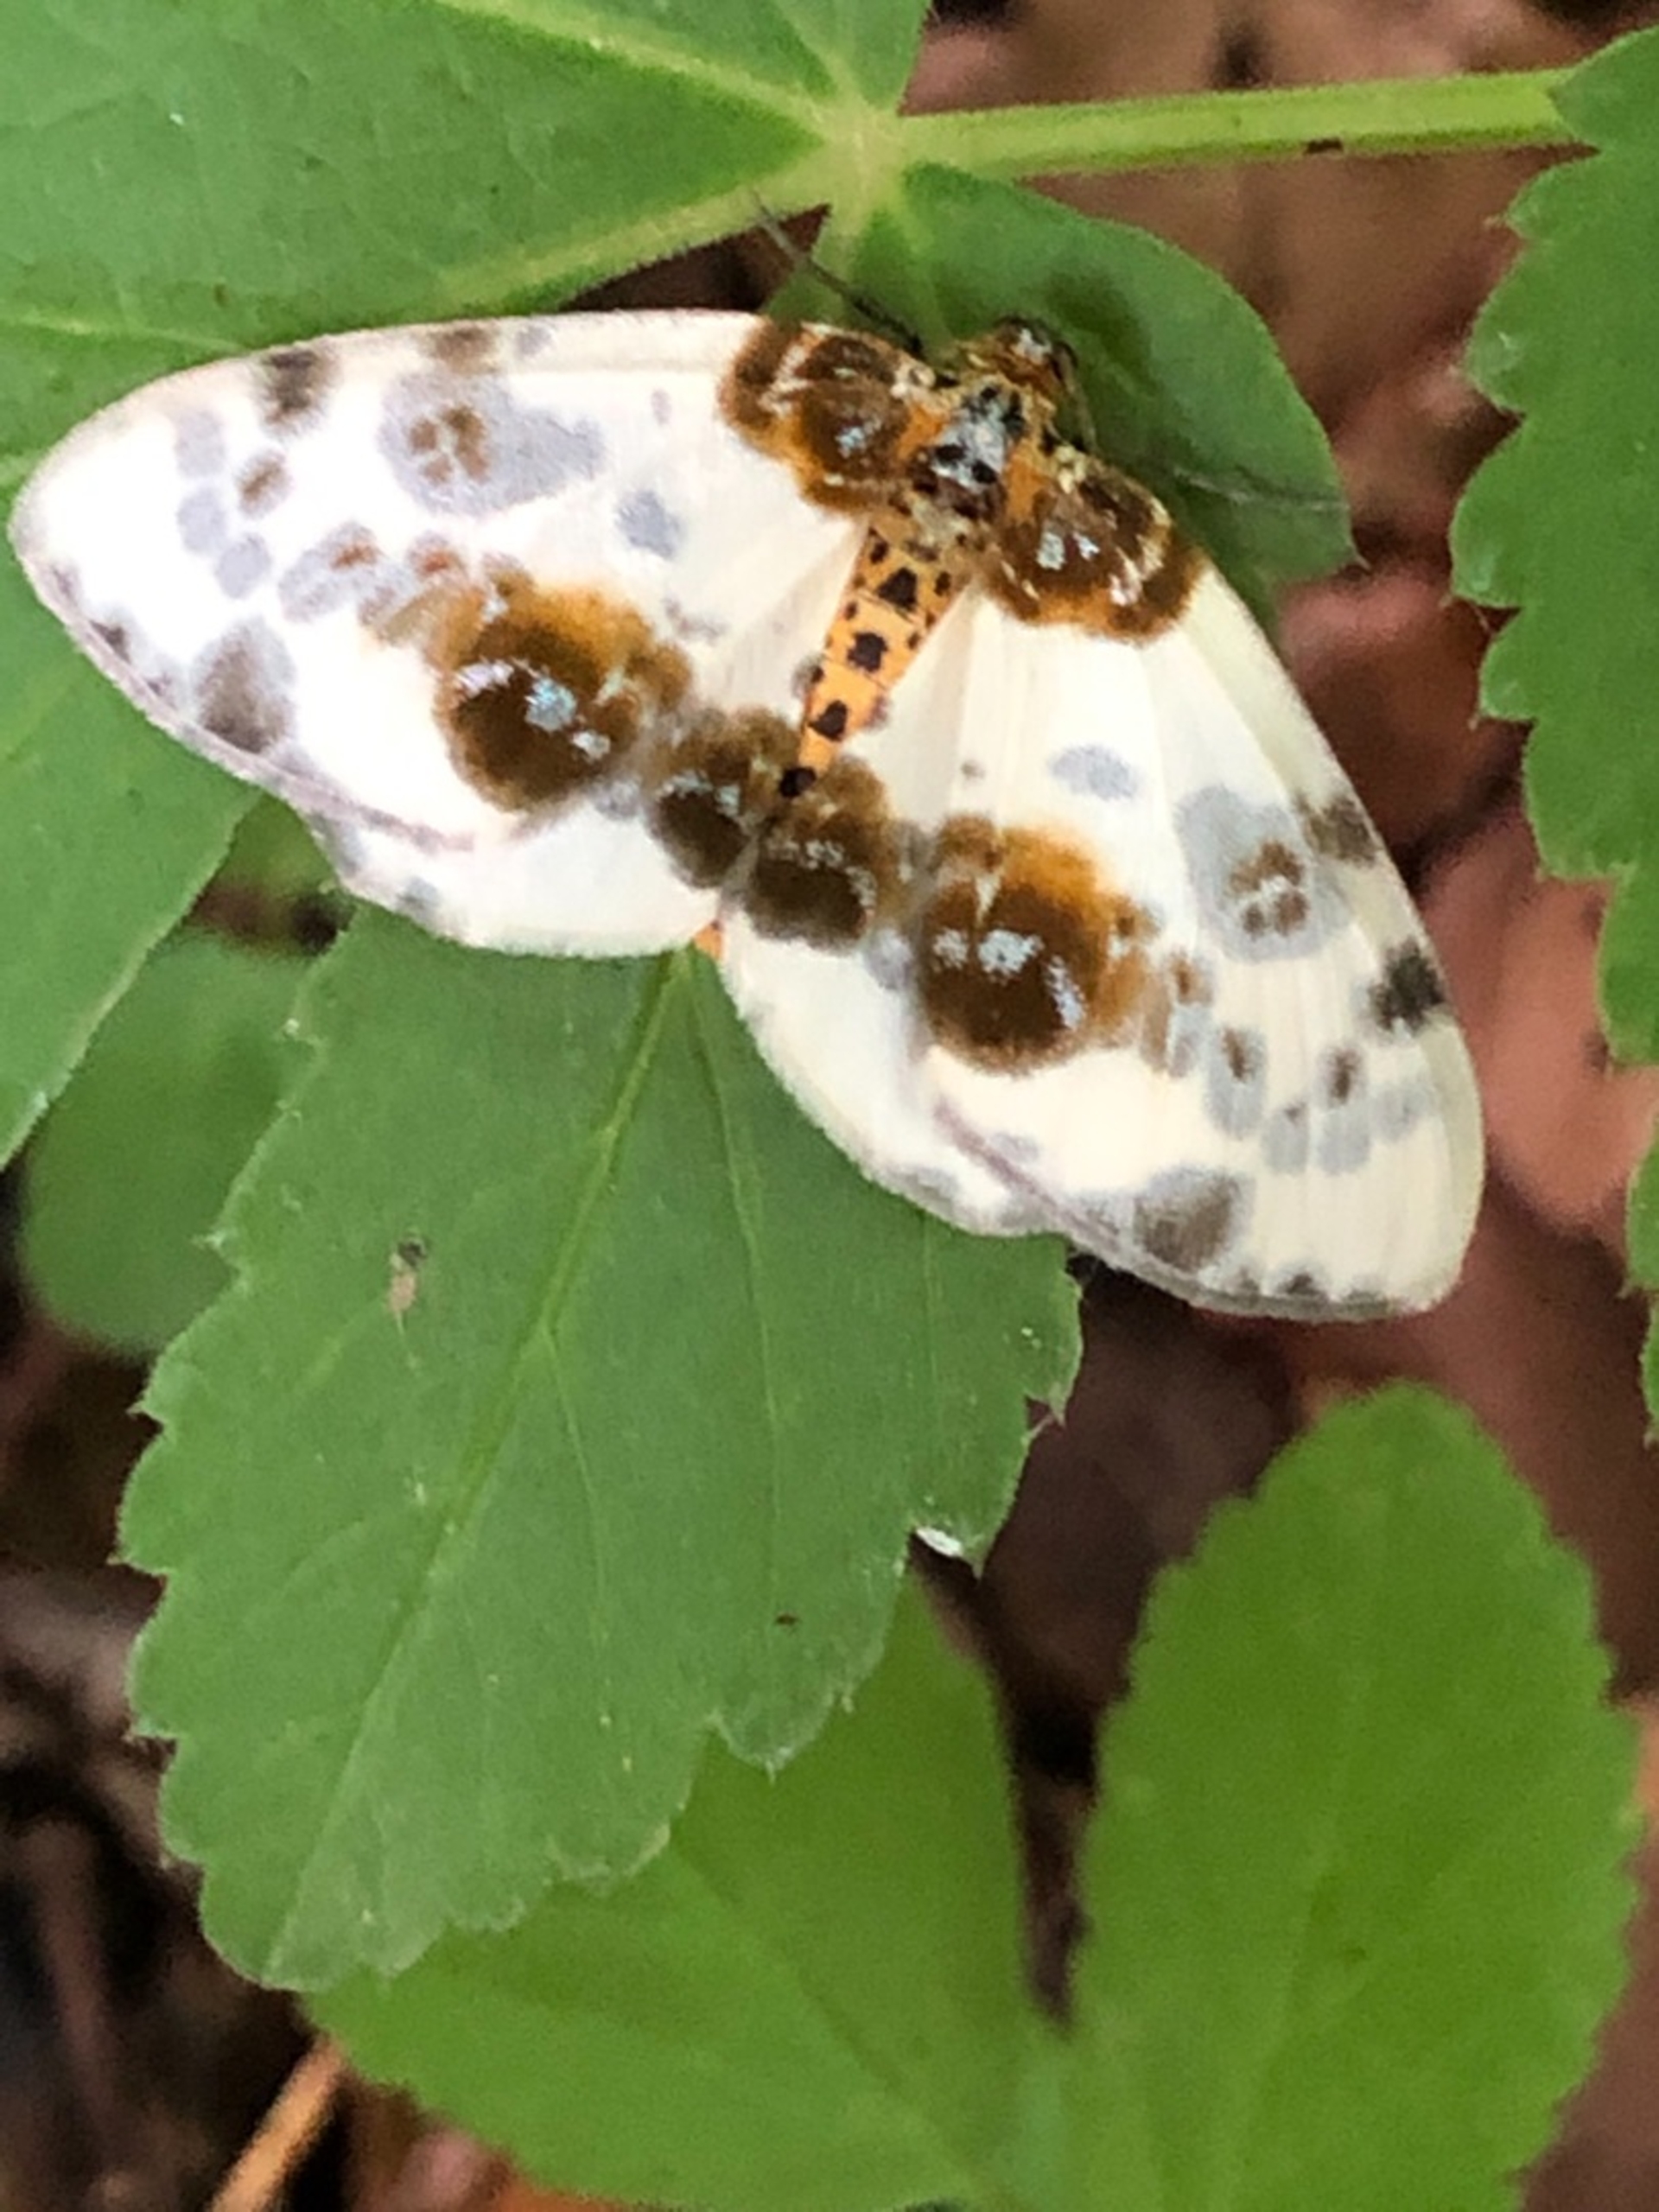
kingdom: Animalia
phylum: Arthropoda
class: Insecta
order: Lepidoptera
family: Geometridae
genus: Abraxas
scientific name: Abraxas sylvata
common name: Elmemåler
